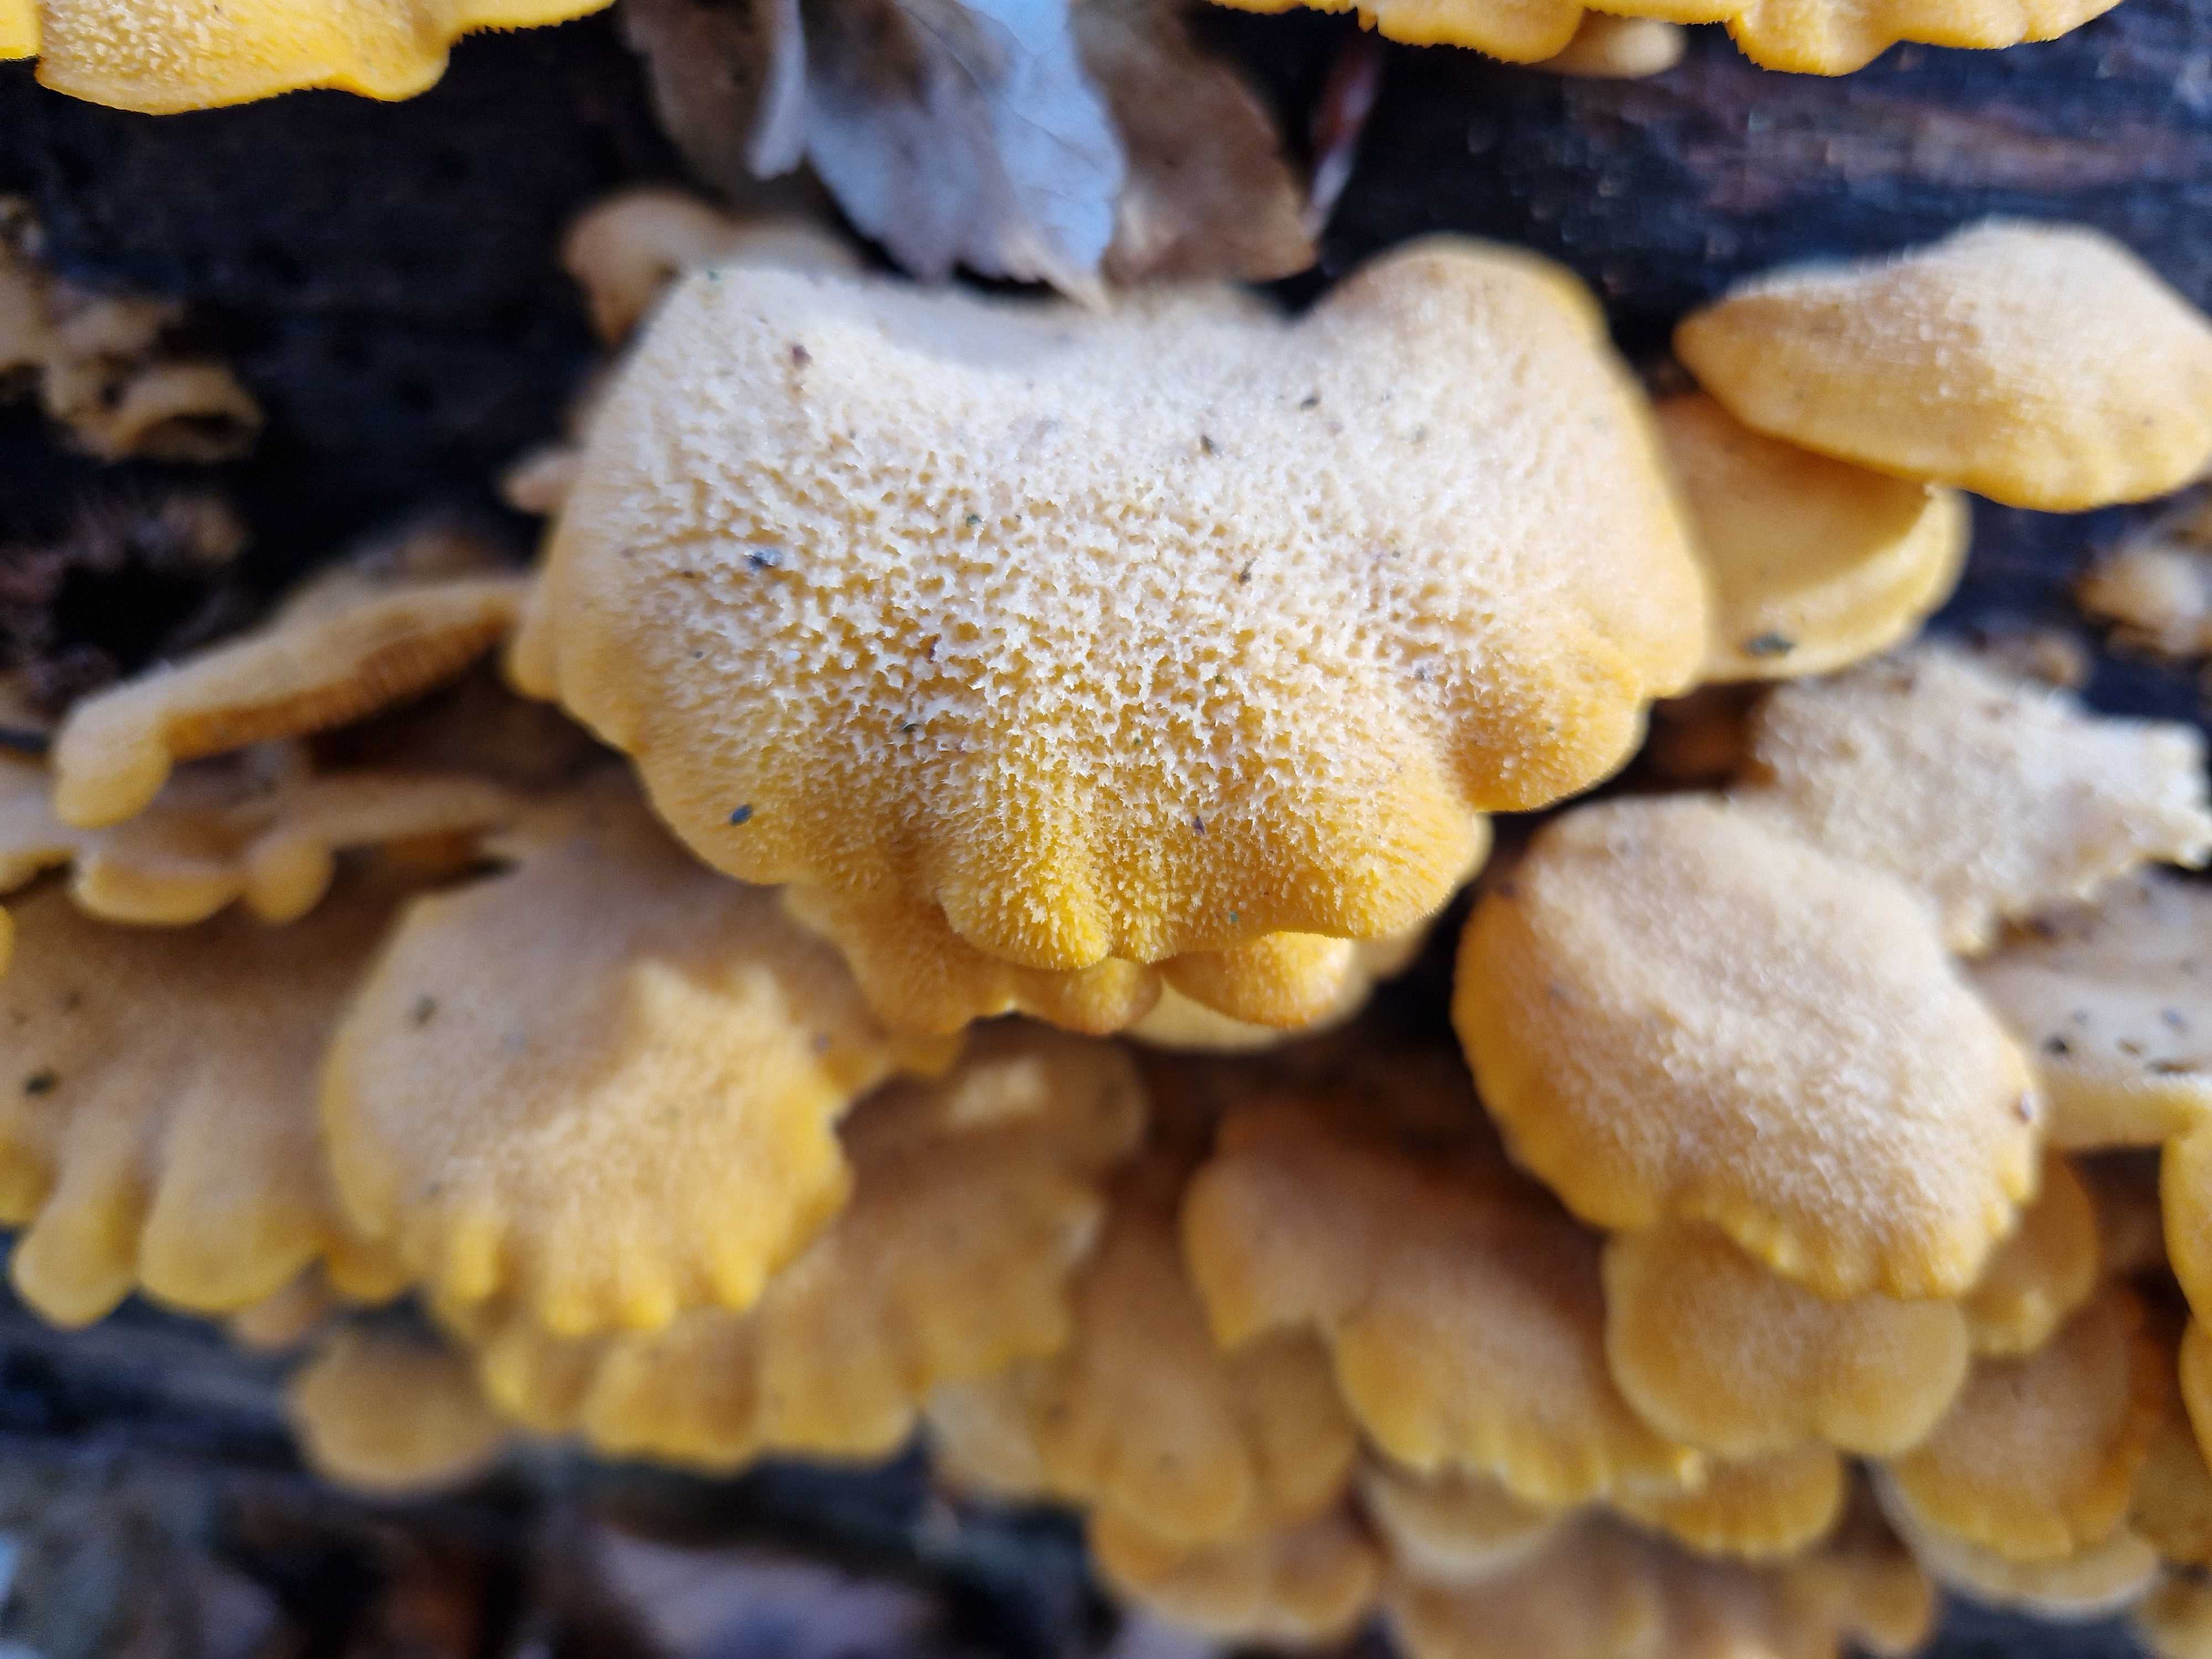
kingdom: Fungi
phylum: Basidiomycota
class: Agaricomycetes
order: Agaricales
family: Phyllotopsidaceae
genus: Phyllotopsis
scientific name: Phyllotopsis nidulans
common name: okkerblad
